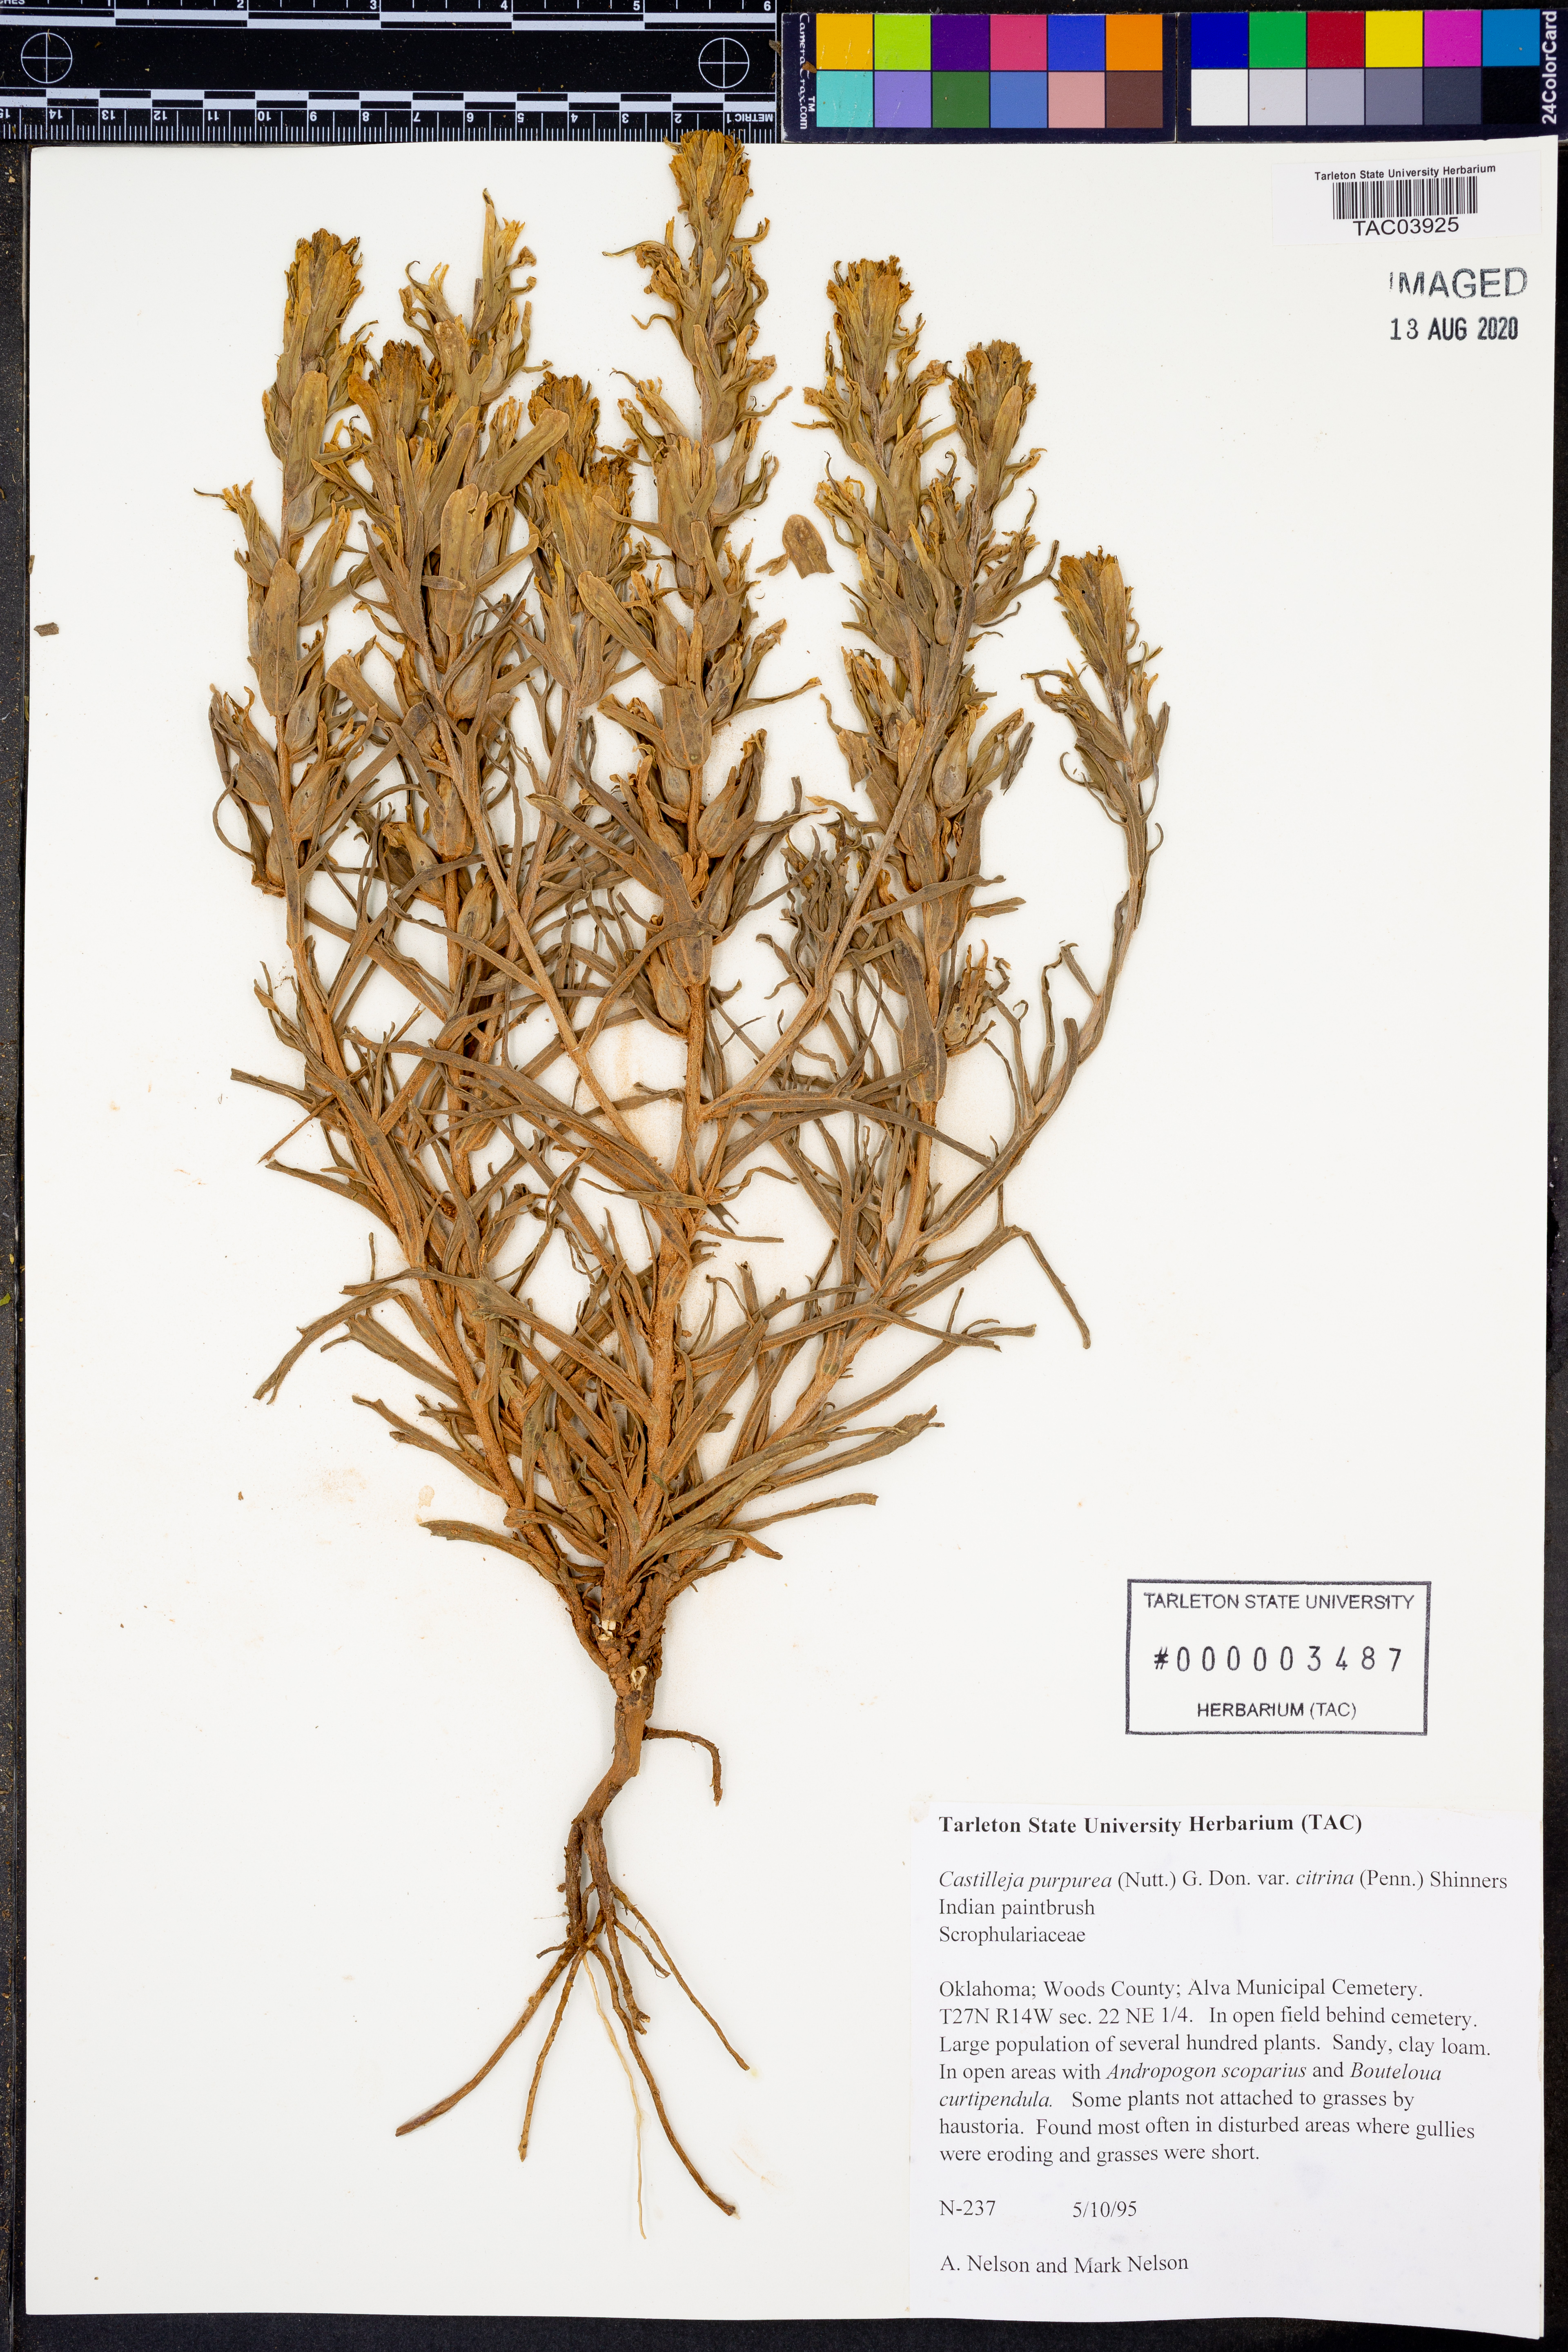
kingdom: Plantae
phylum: Tracheophyta
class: Magnoliopsida
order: Lamiales
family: Orobanchaceae
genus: Castilleja
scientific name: Castilleja citrina
